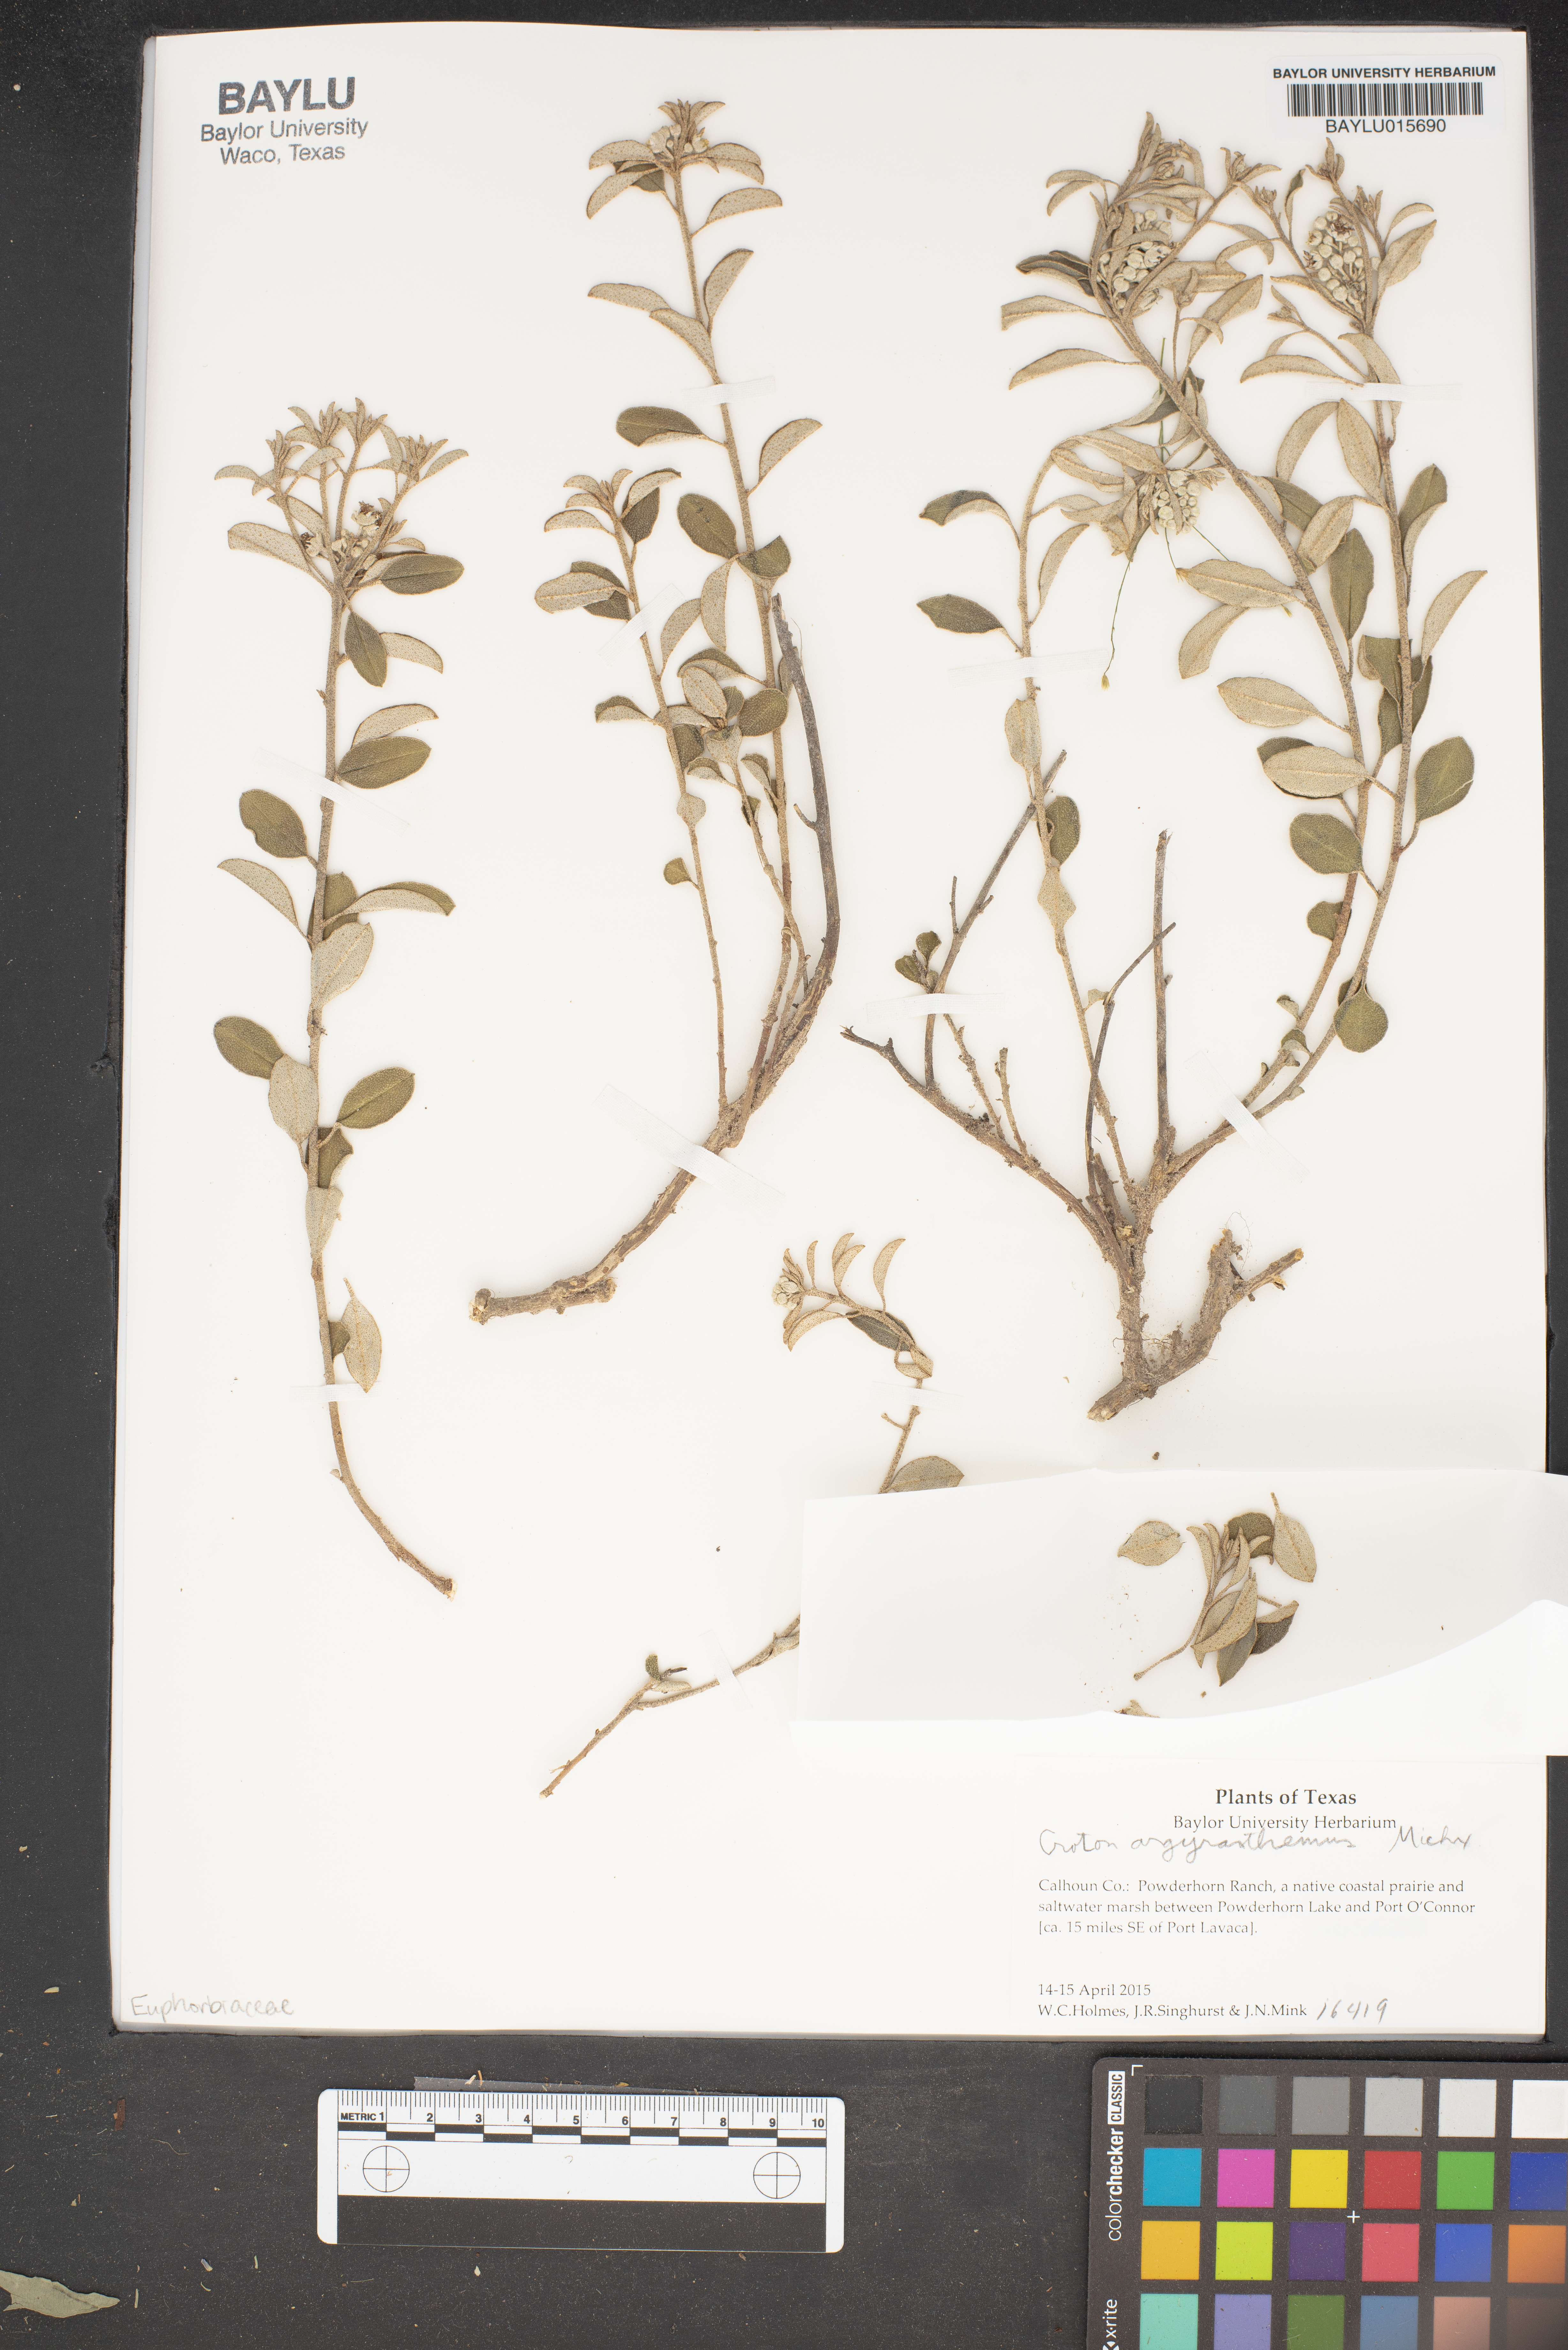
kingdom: Plantae
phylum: Tracheophyta
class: Magnoliopsida
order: Malpighiales
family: Euphorbiaceae
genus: Croton
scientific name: Croton argyranthemus
